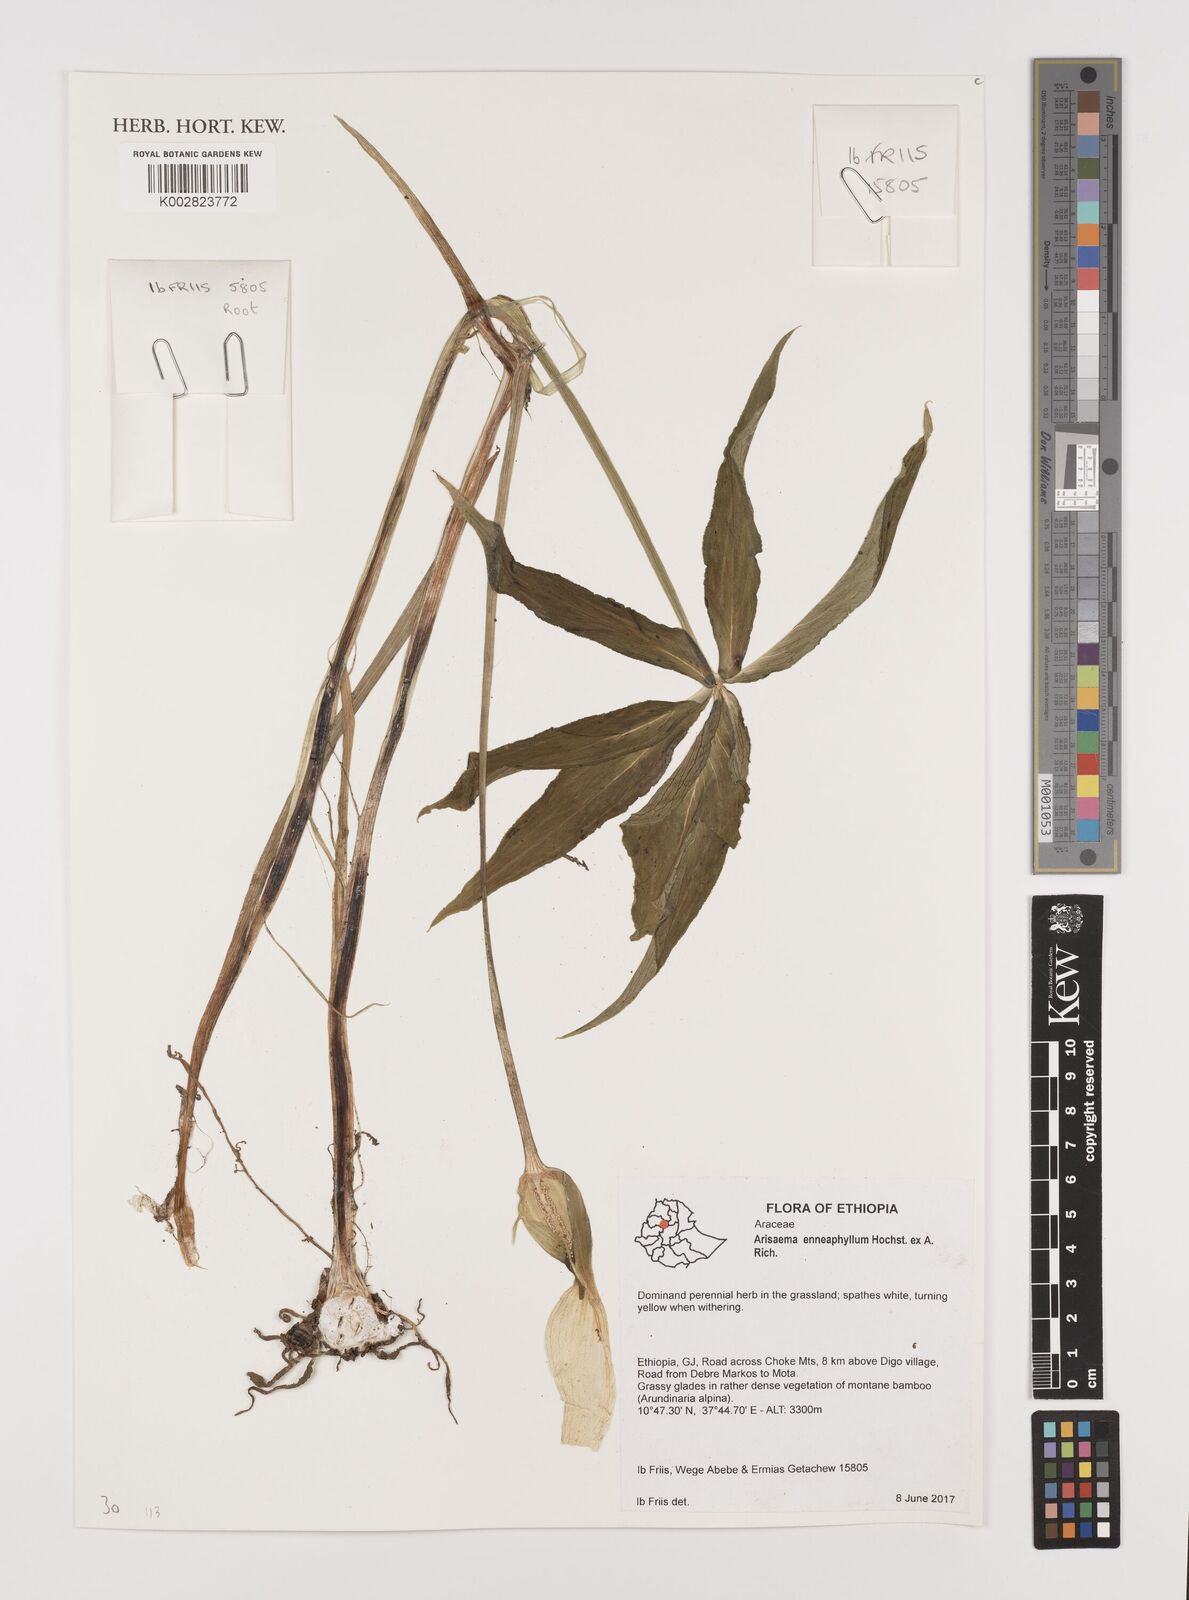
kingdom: Plantae
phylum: Tracheophyta
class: Liliopsida
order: Alismatales
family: Araceae
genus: Arisaema
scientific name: Arisaema enneaphyllum
